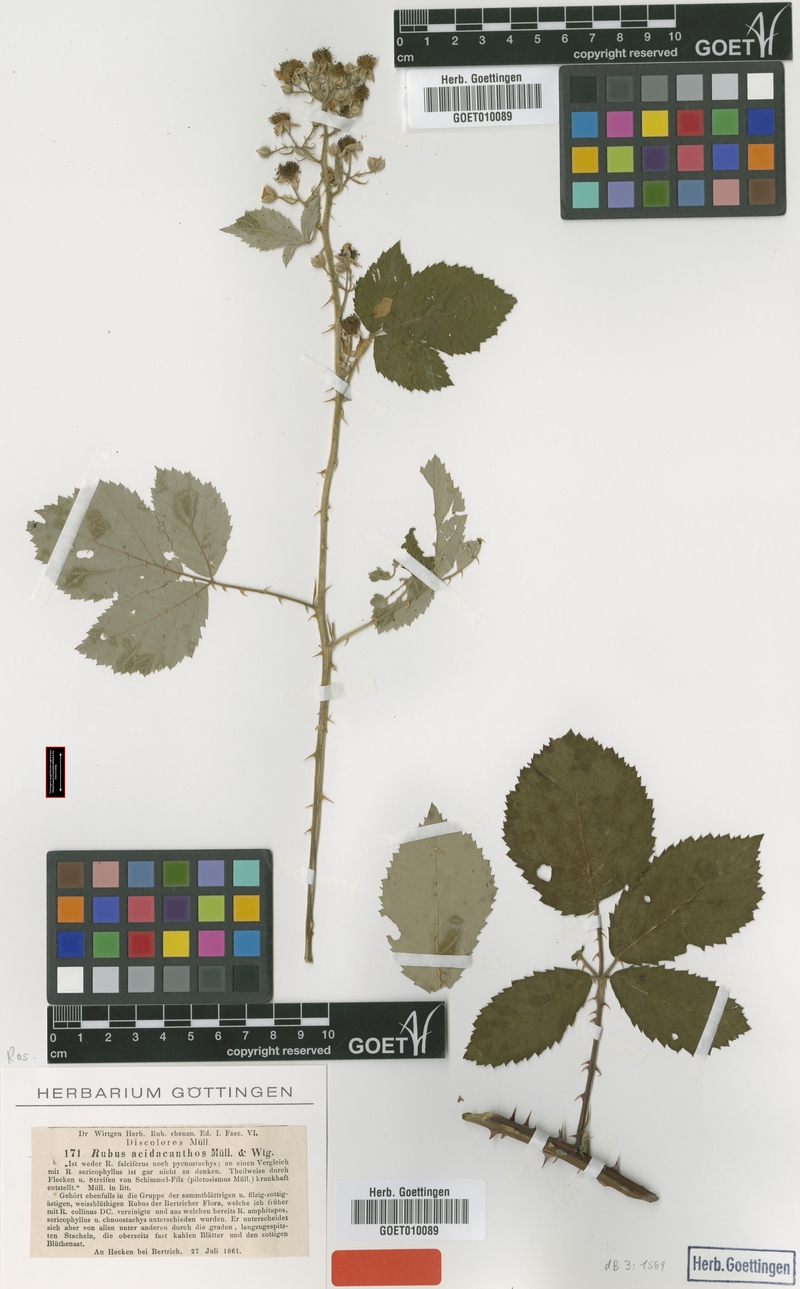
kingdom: Plantae
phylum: Tracheophyta
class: Magnoliopsida
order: Rosales
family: Rosaceae
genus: Rubus
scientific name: Rubus acidacanthos
